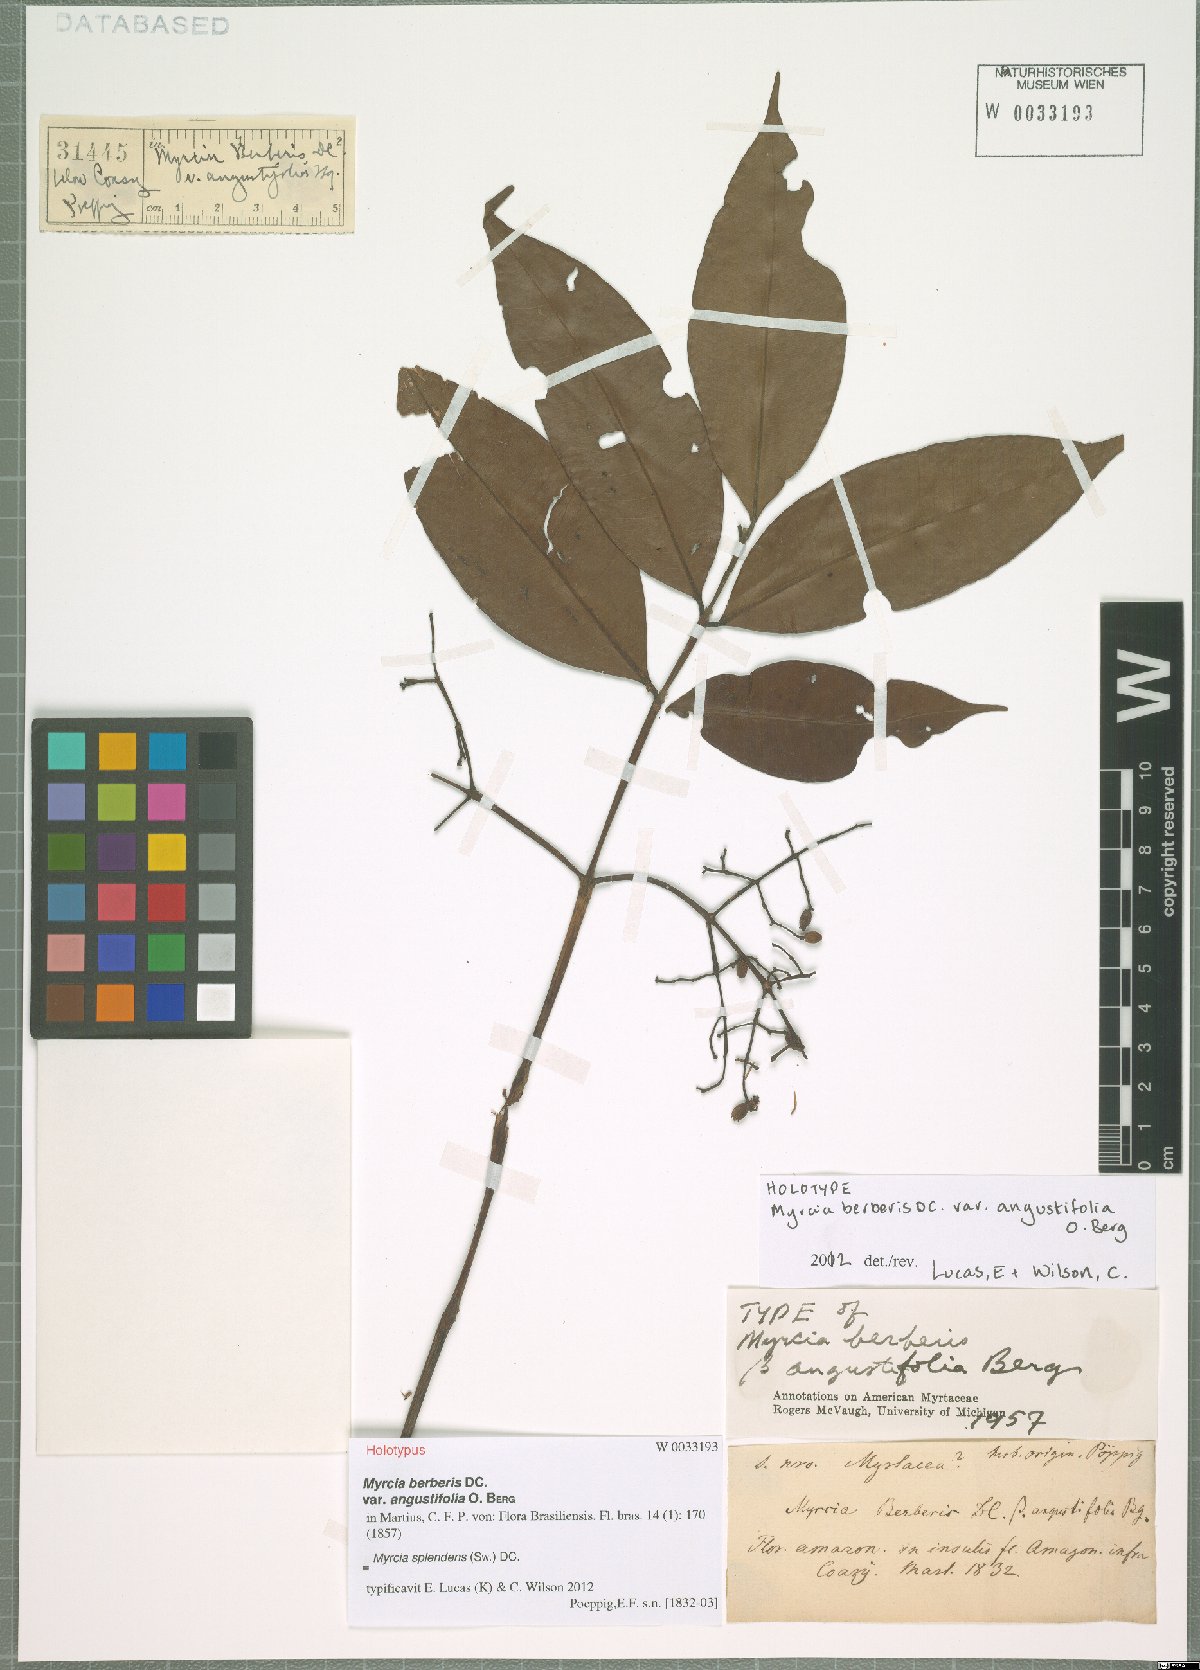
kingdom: Plantae
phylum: Tracheophyta
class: Magnoliopsida
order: Myrtales
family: Myrtaceae
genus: Myrcia
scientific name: Myrcia splendens
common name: Surinam cherry
